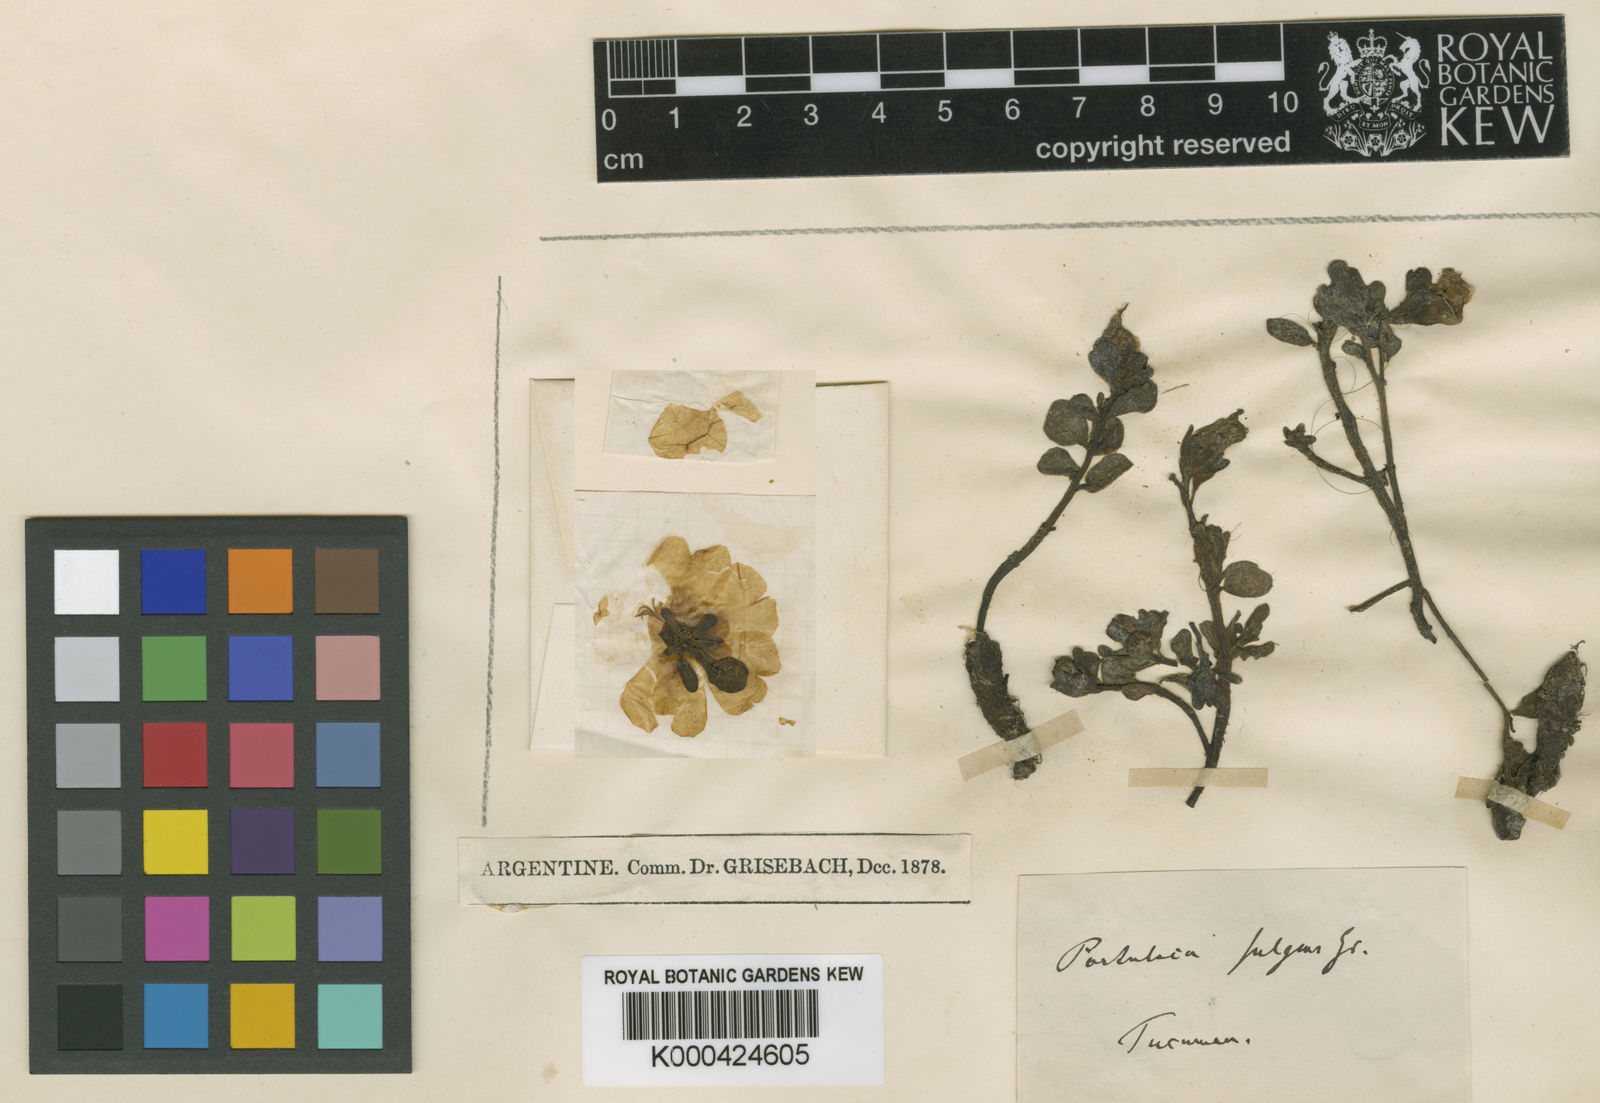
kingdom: Plantae
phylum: Tracheophyta
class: Magnoliopsida
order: Caryophyllales
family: Portulacaceae
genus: Portulaca
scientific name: Portulaca fulgens
